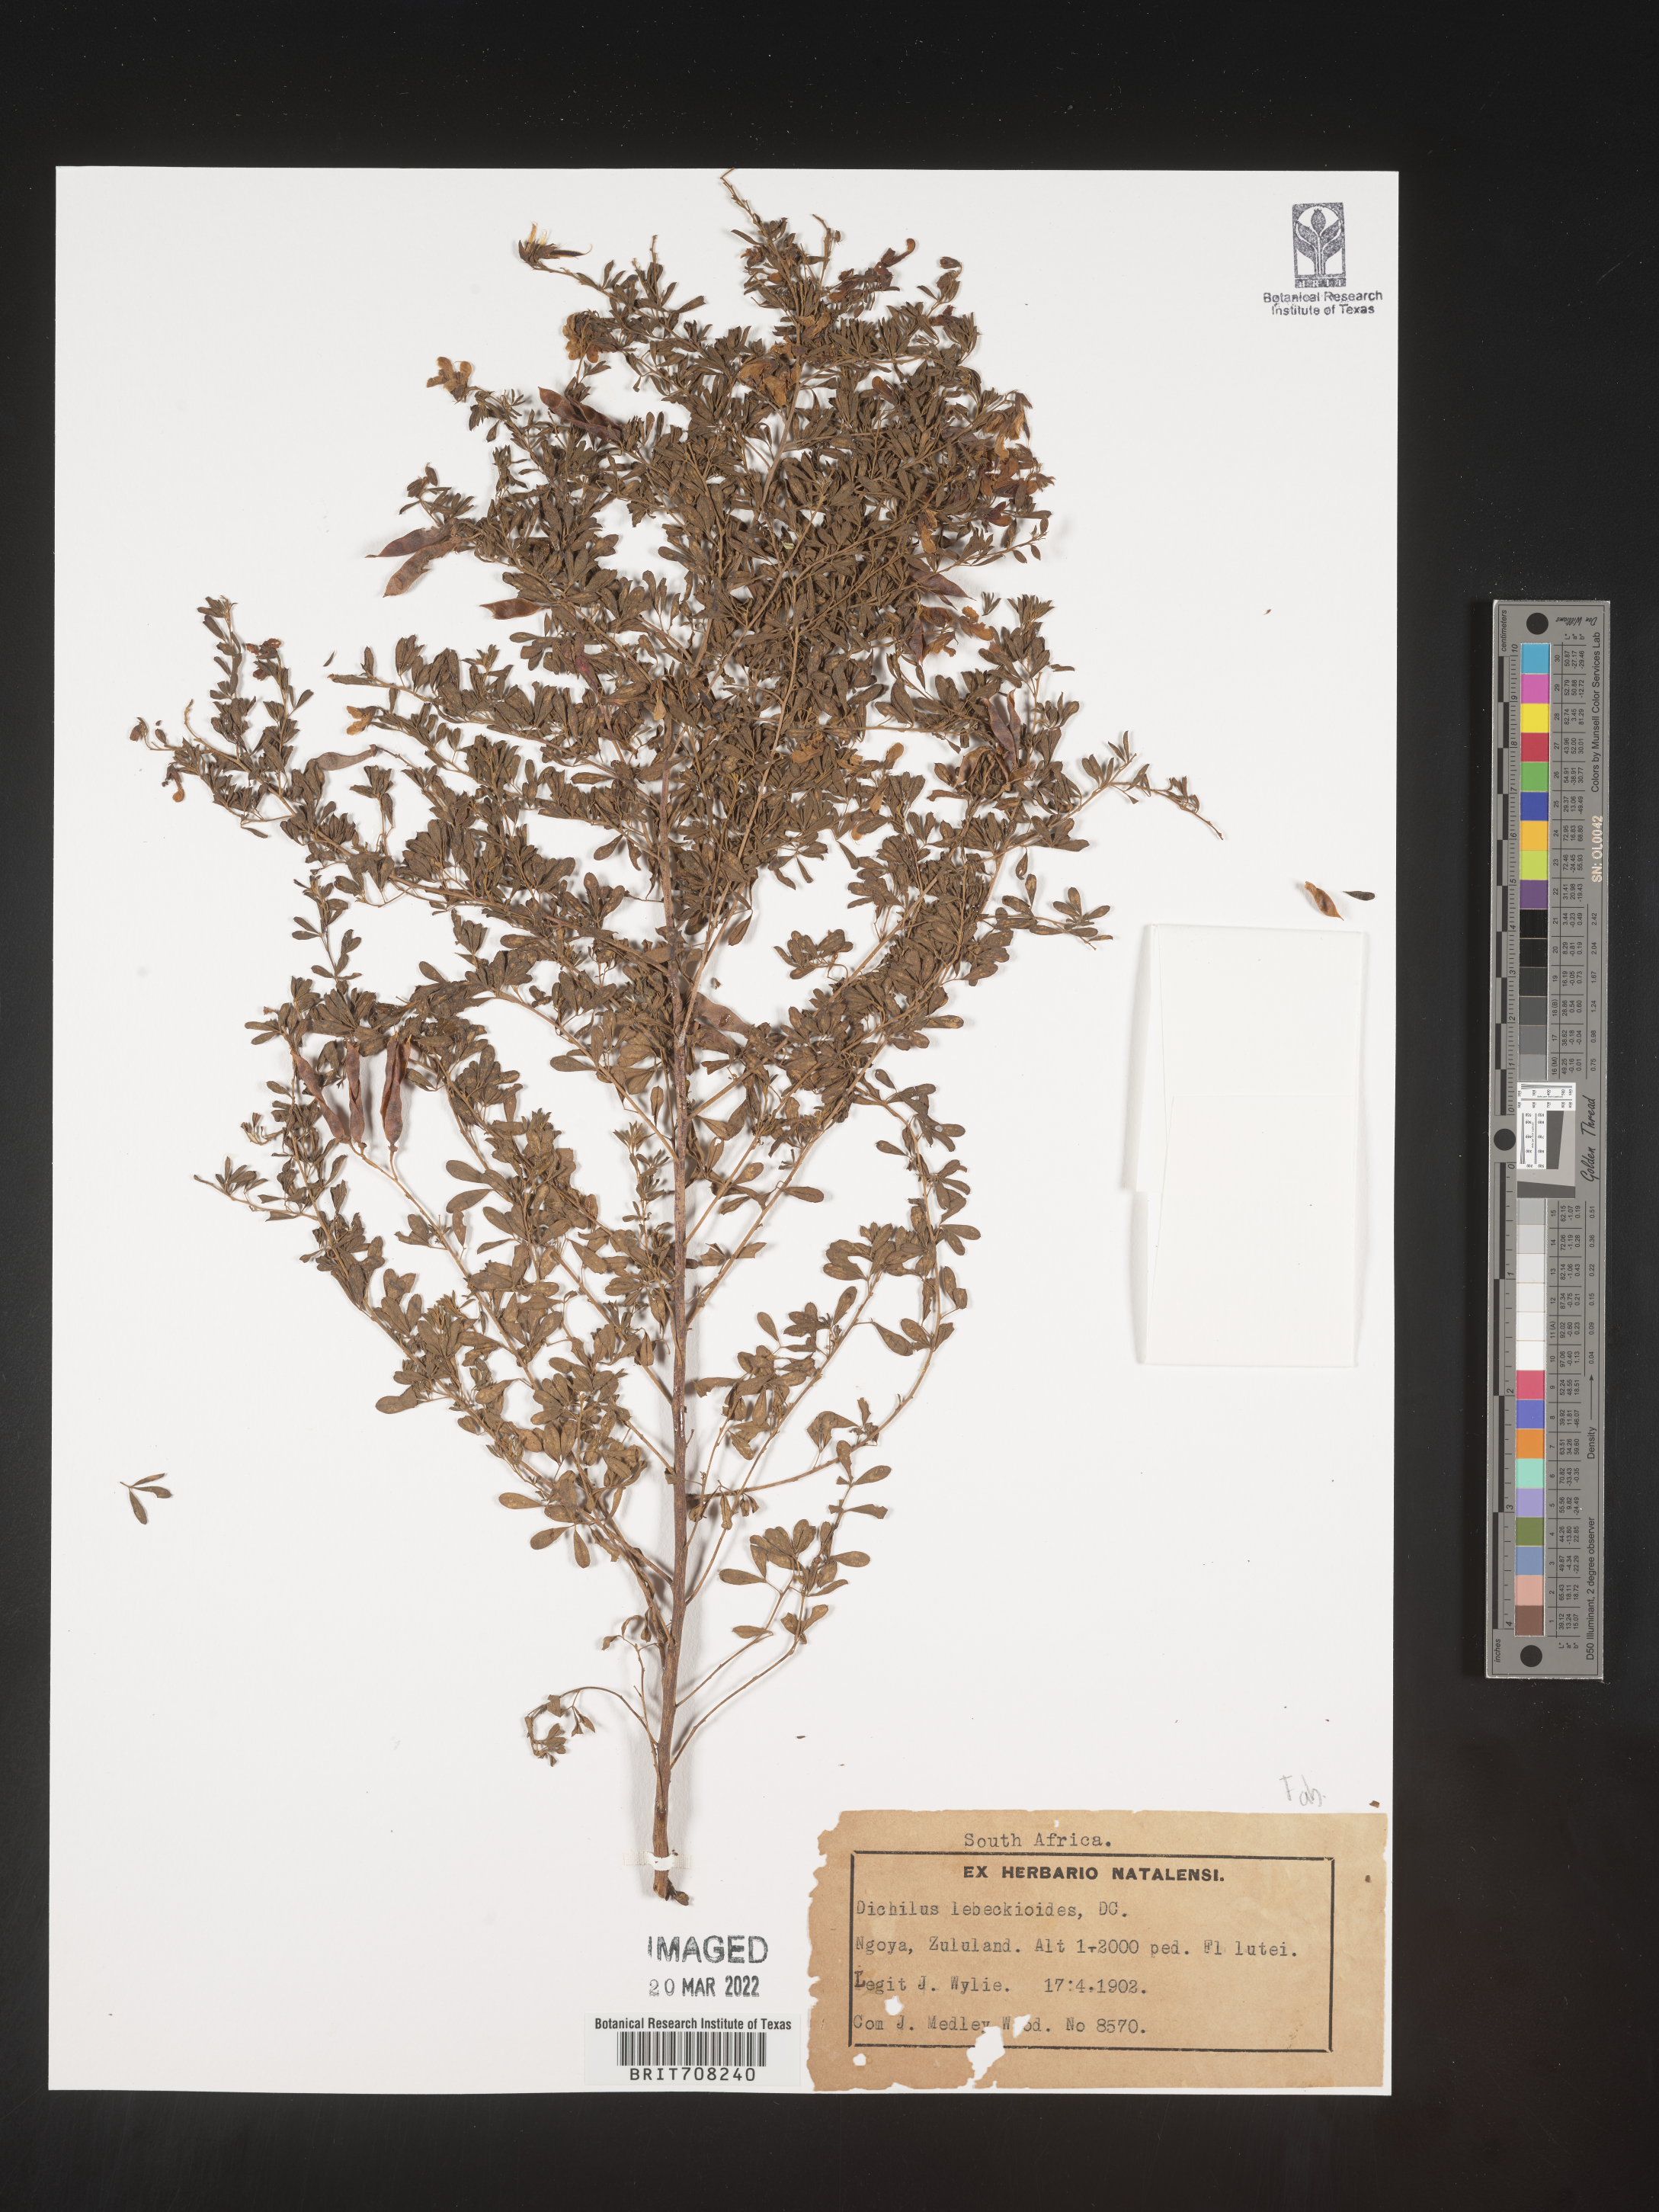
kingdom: Plantae
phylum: Tracheophyta
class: Magnoliopsida
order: Fabales
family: Fabaceae
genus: Dichilus
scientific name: Dichilus
